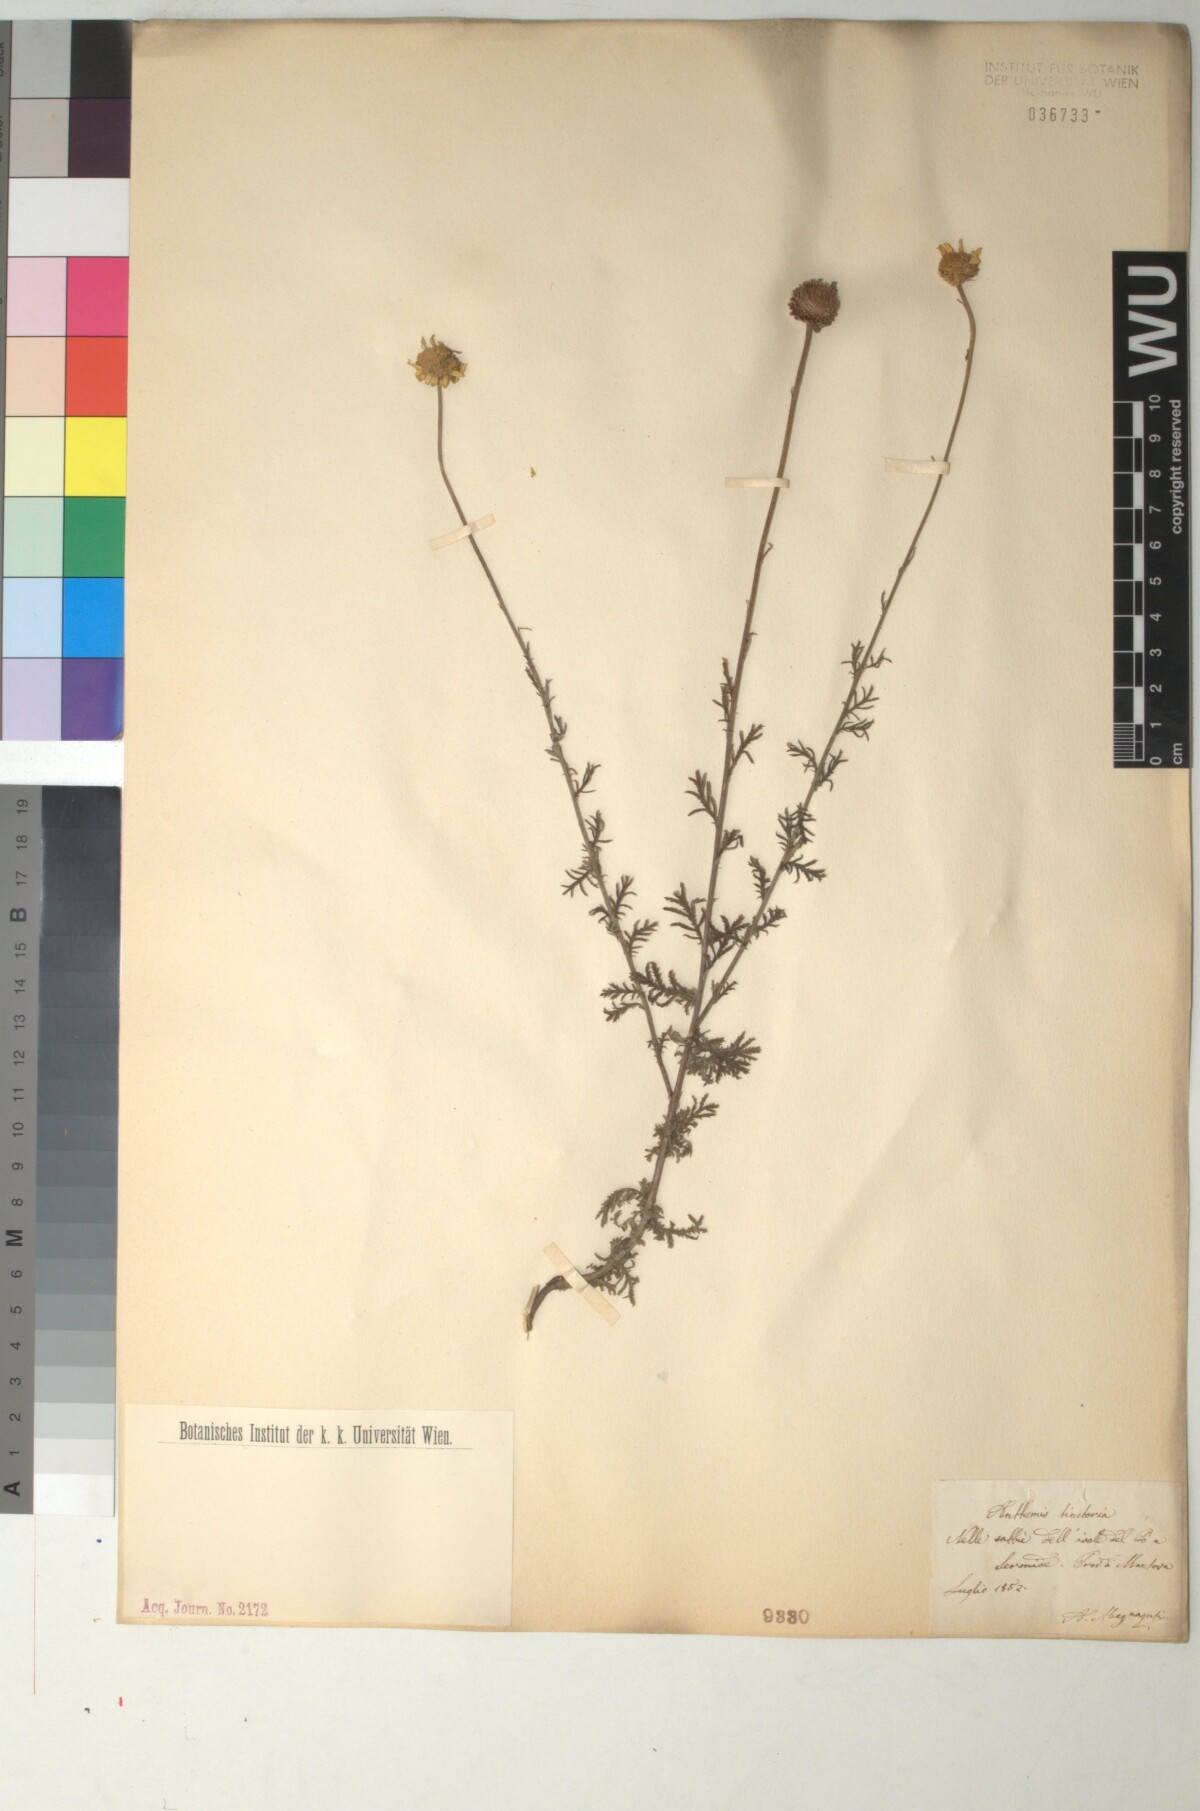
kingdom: Plantae
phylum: Tracheophyta
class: Magnoliopsida
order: Asterales
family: Asteraceae
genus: Cota
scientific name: Cota tinctoria
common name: Golden chamomile
